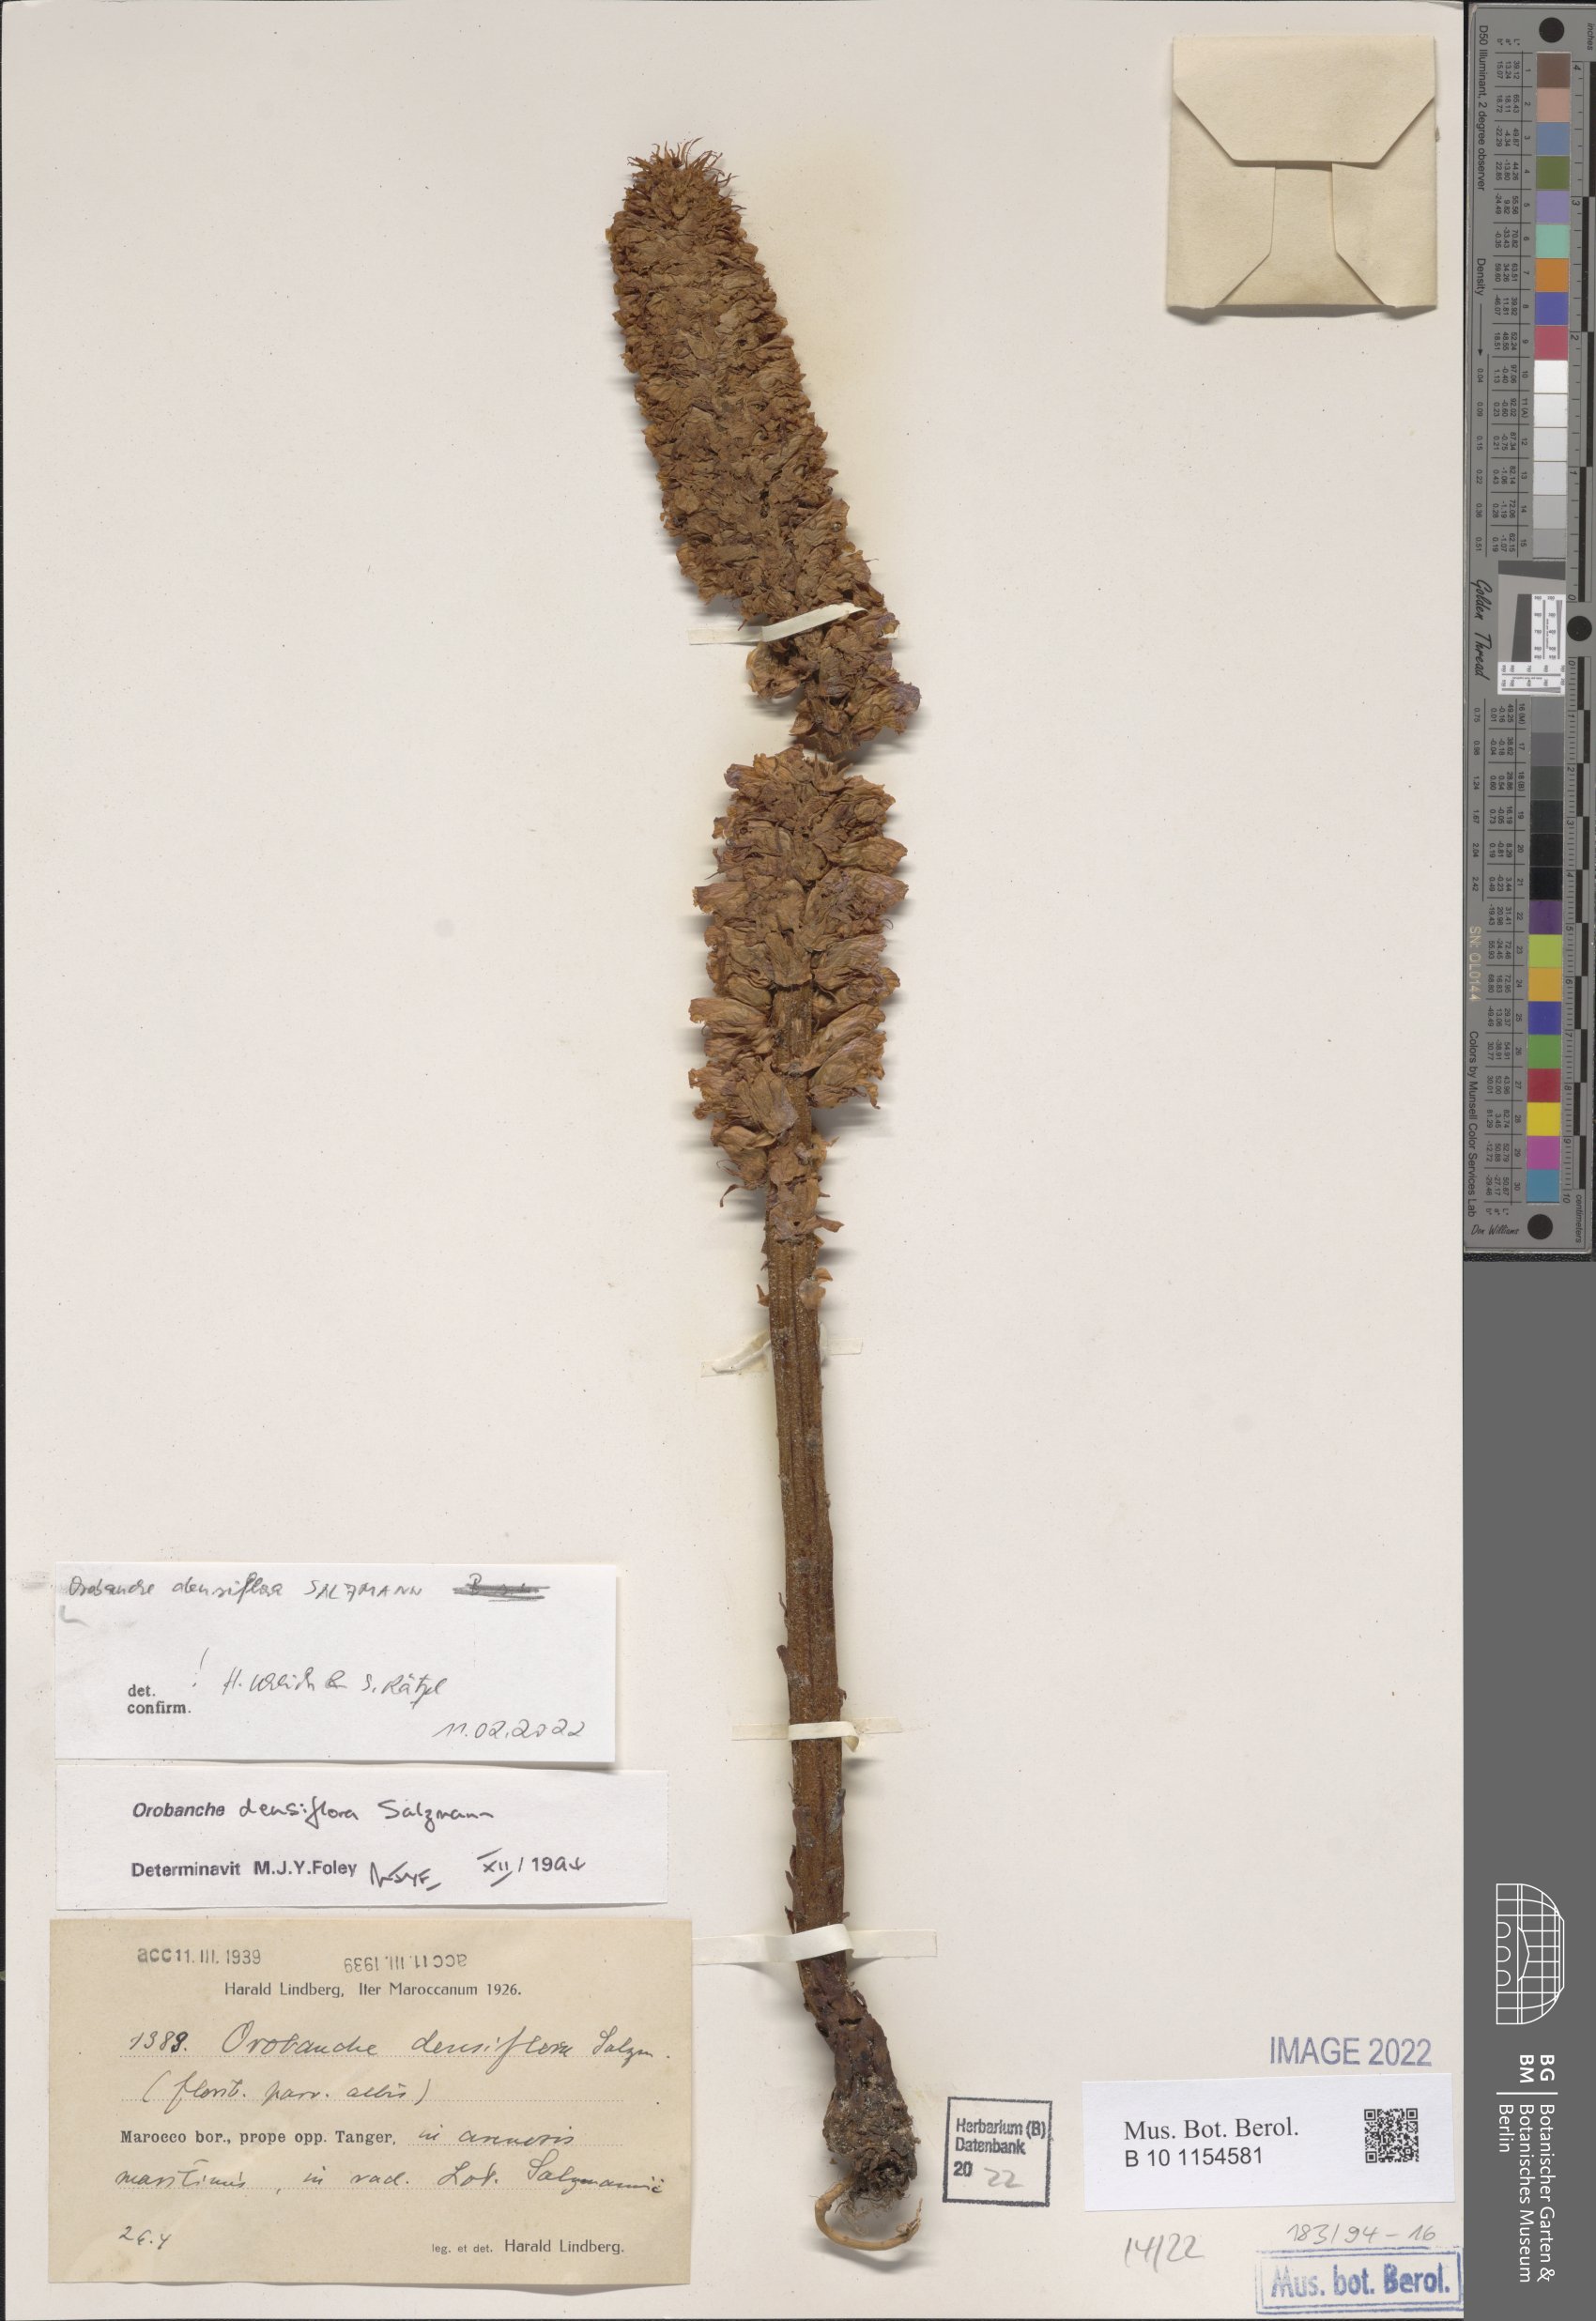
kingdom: Plantae
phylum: Tracheophyta
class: Magnoliopsida
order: Lamiales
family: Orobanchaceae
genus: Orobanche
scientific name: Orobanche densiflora
